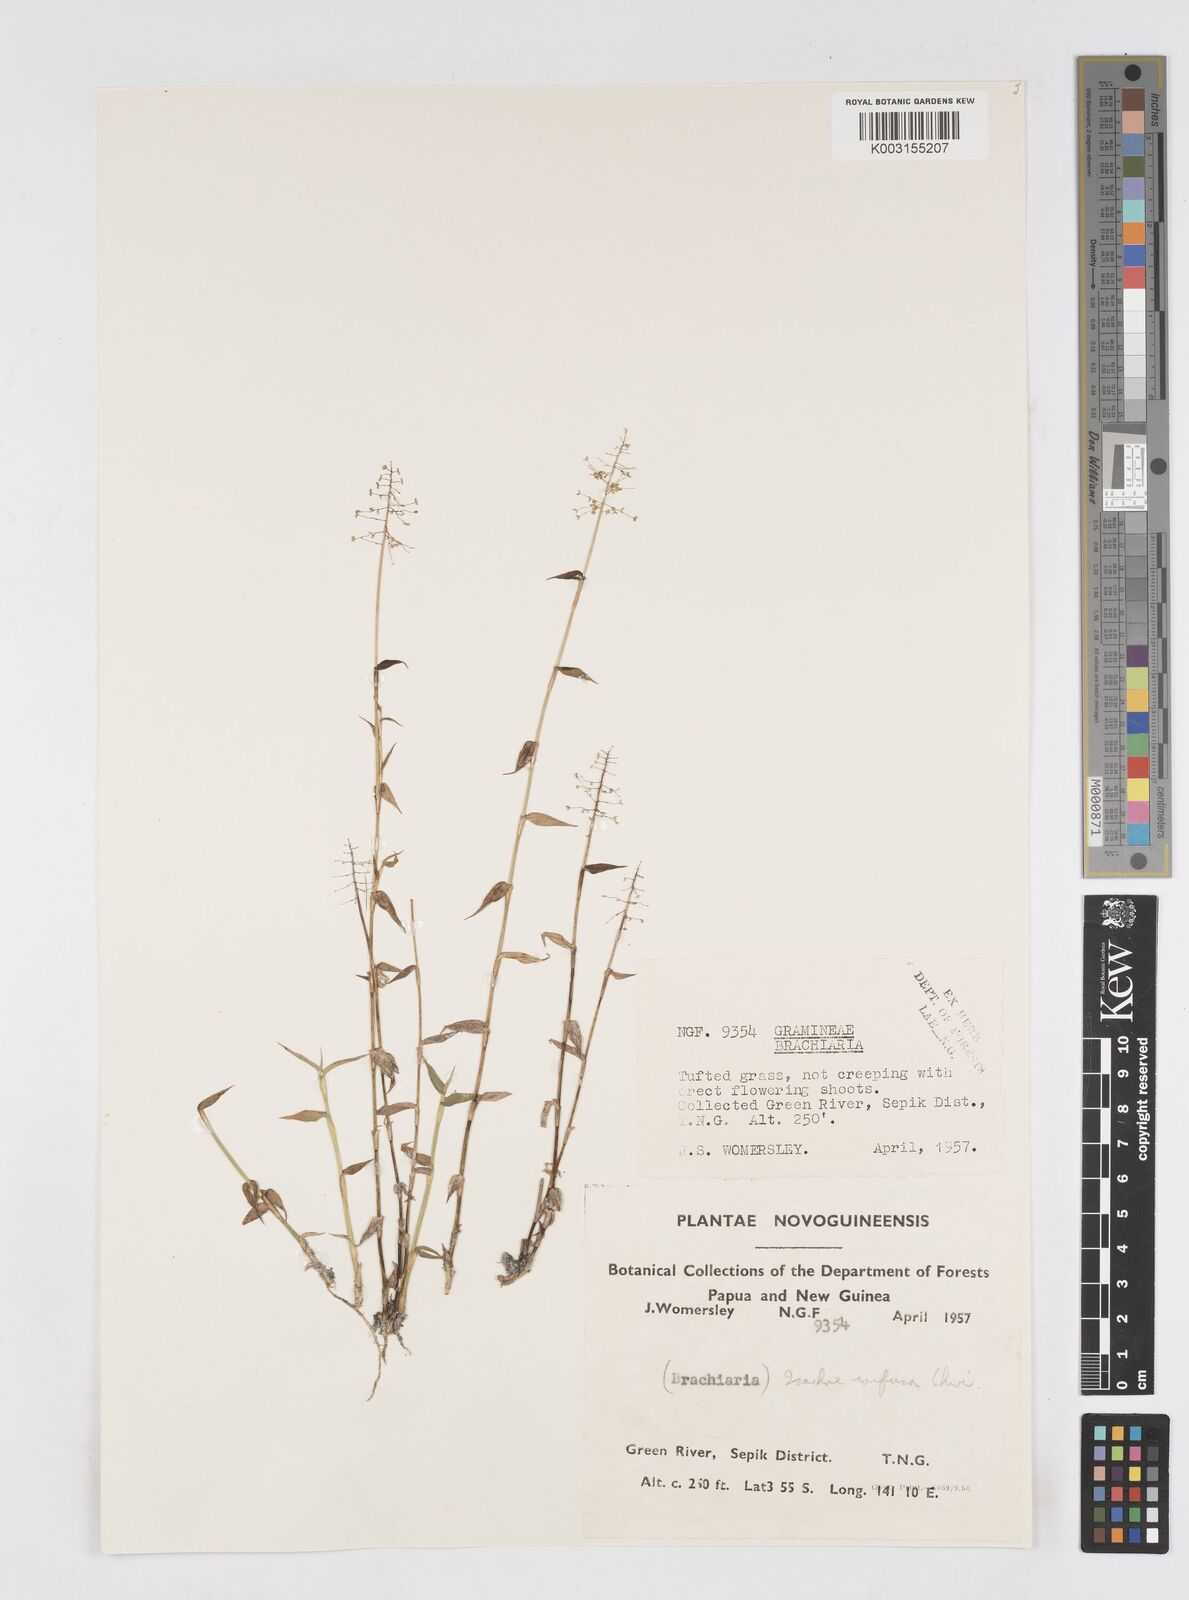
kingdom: Plantae
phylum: Tracheophyta
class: Liliopsida
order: Poales
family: Poaceae
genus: Isachne
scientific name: Isachne confusa
